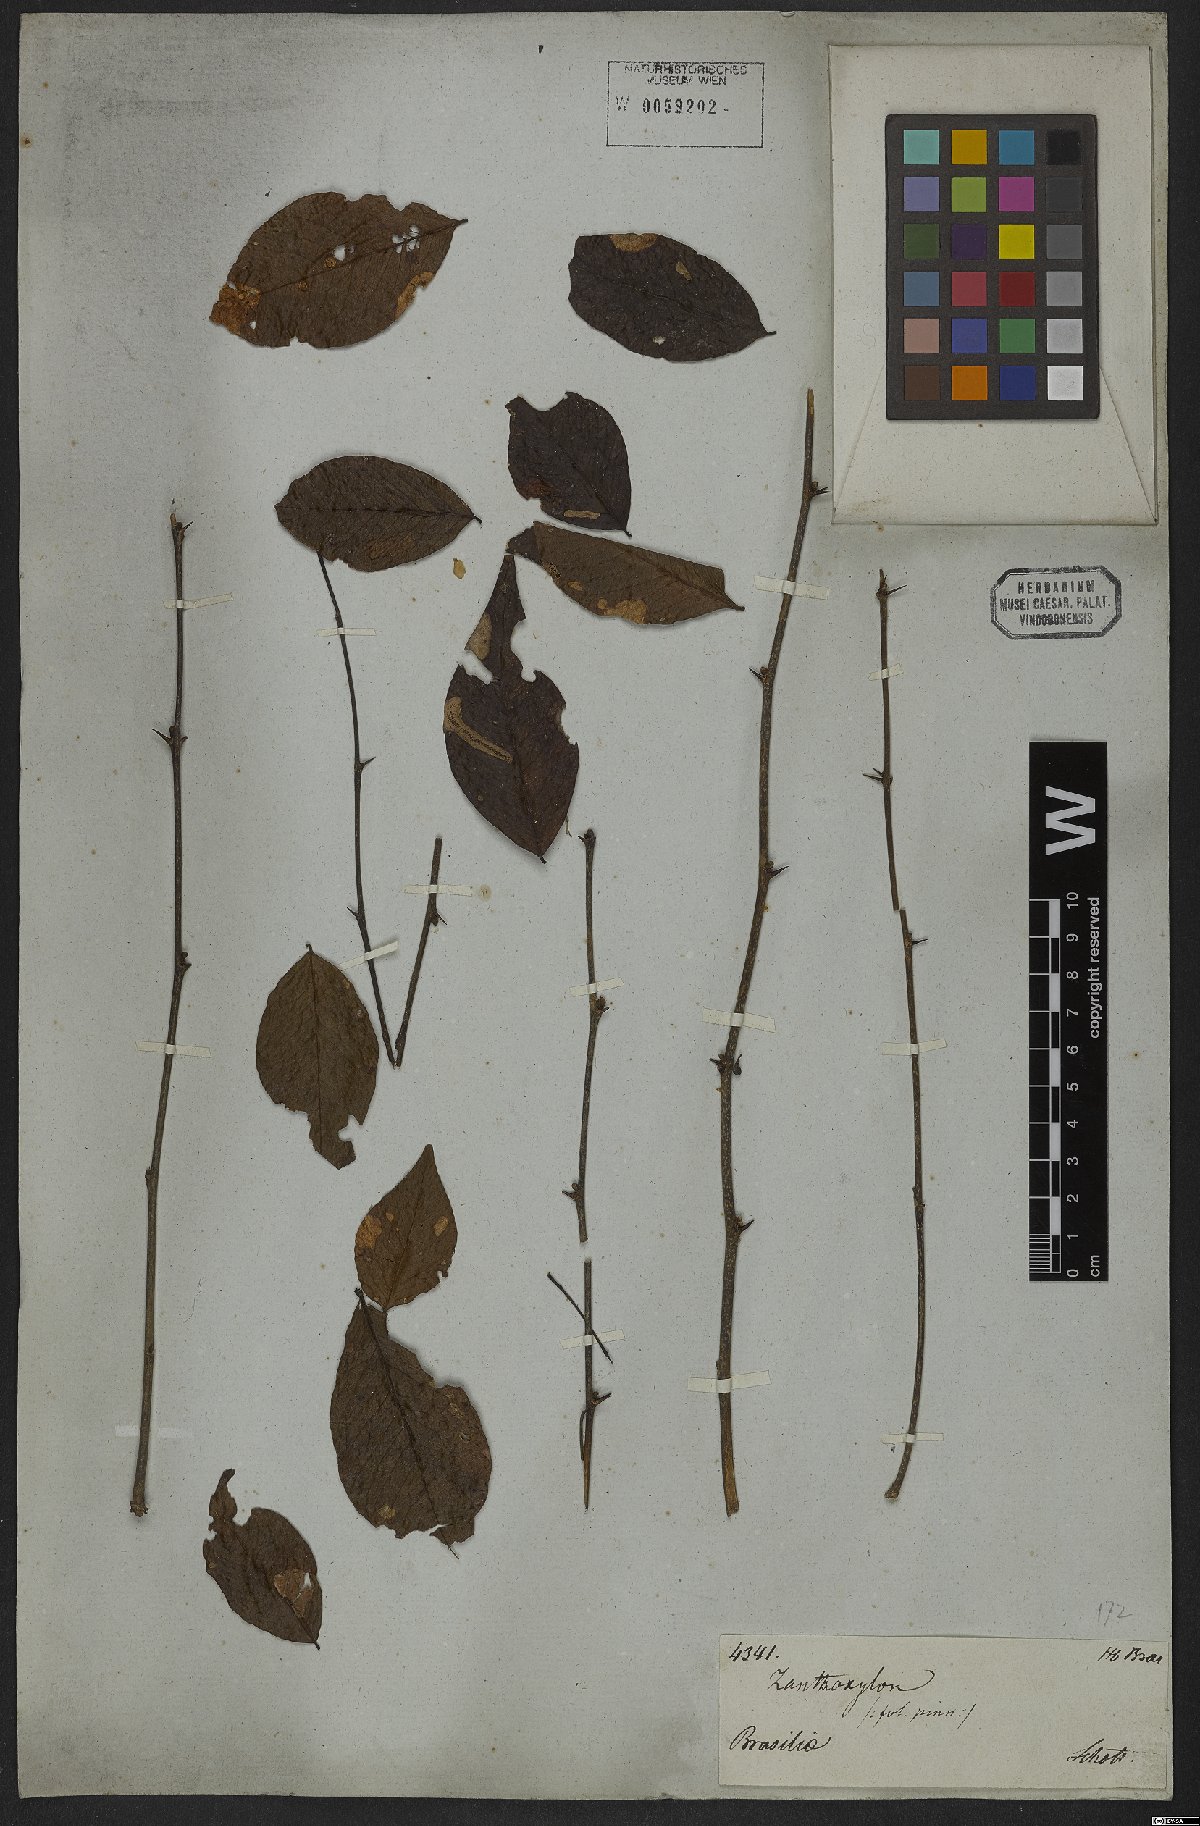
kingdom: Plantae
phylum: Tracheophyta
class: Magnoliopsida
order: Sapindales
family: Rutaceae
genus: Zanthoxylum
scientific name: Zanthoxylum
